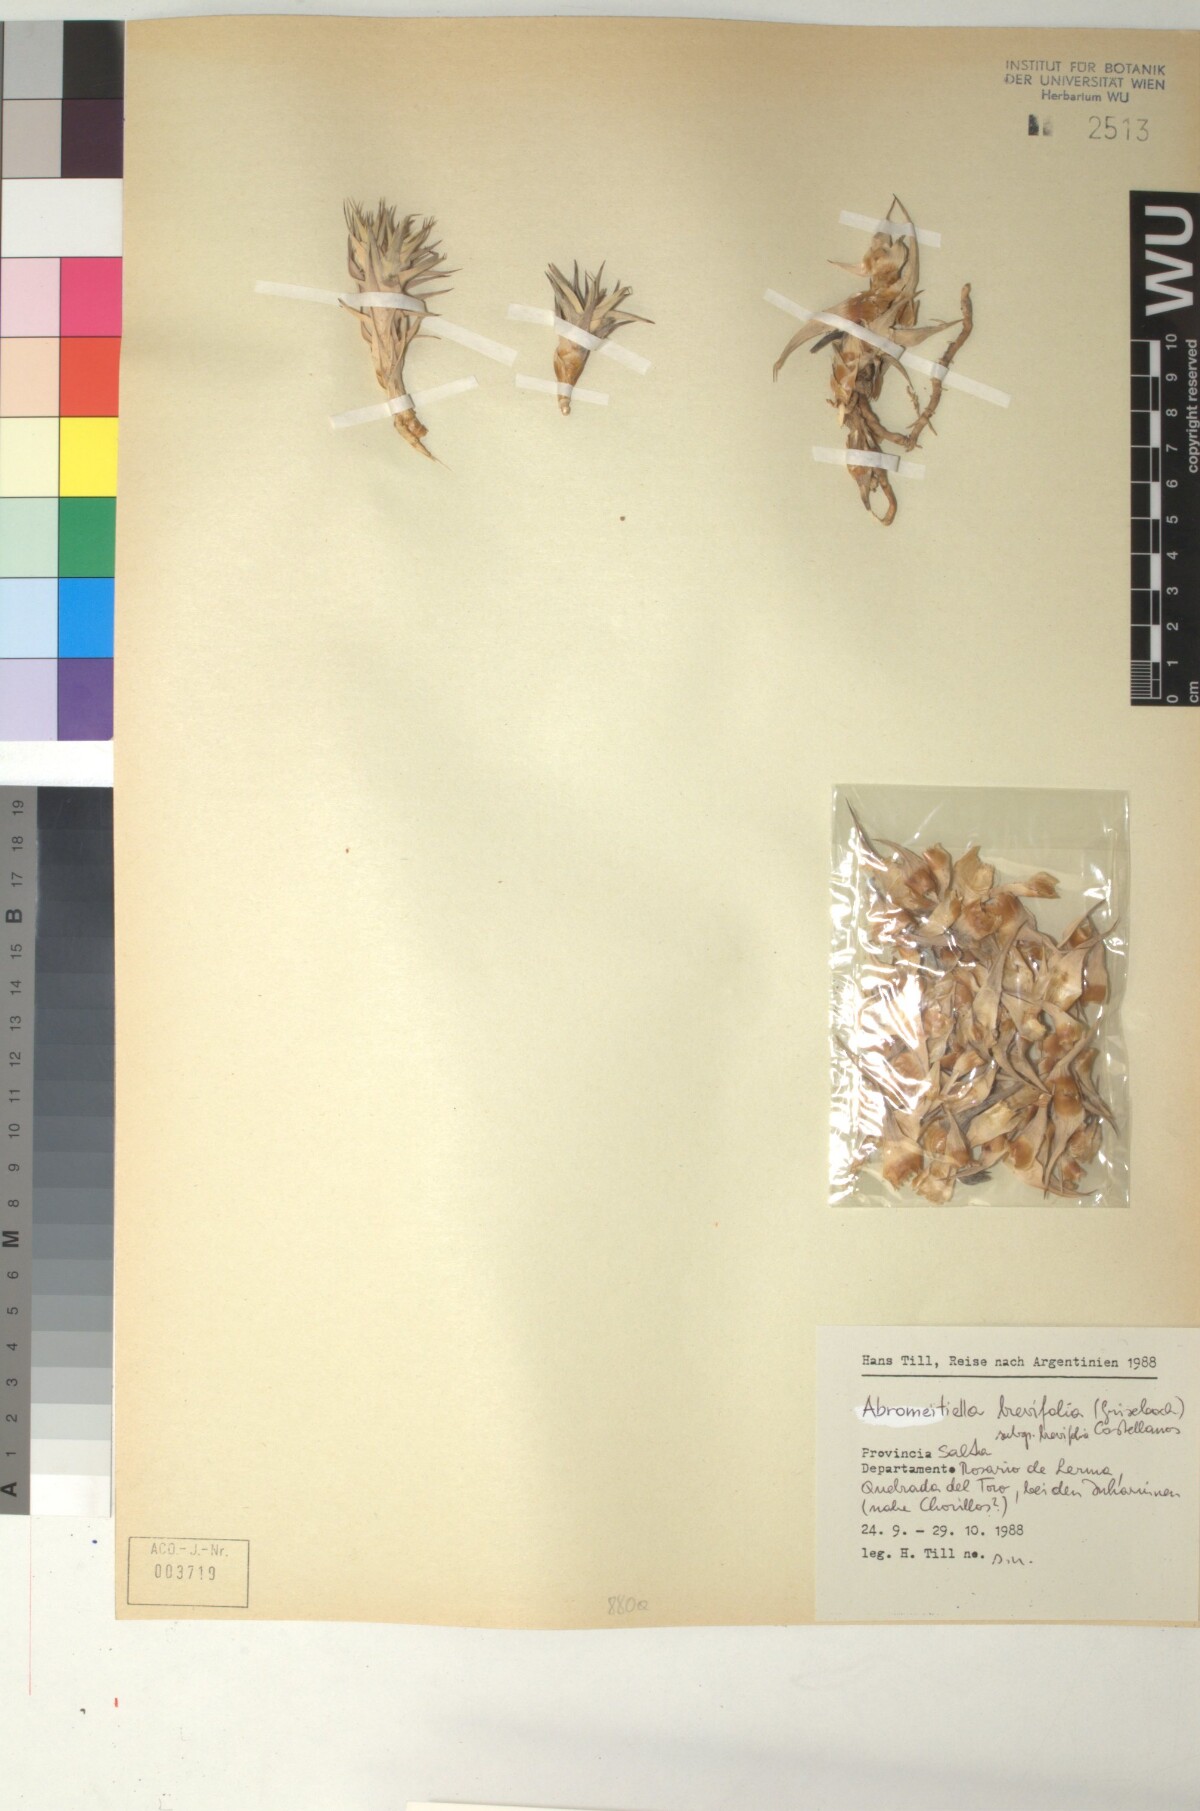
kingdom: Plantae
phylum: Tracheophyta
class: Liliopsida
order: Poales
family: Bromeliaceae
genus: Deuterocohnia
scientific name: Deuterocohnia brevifolia
